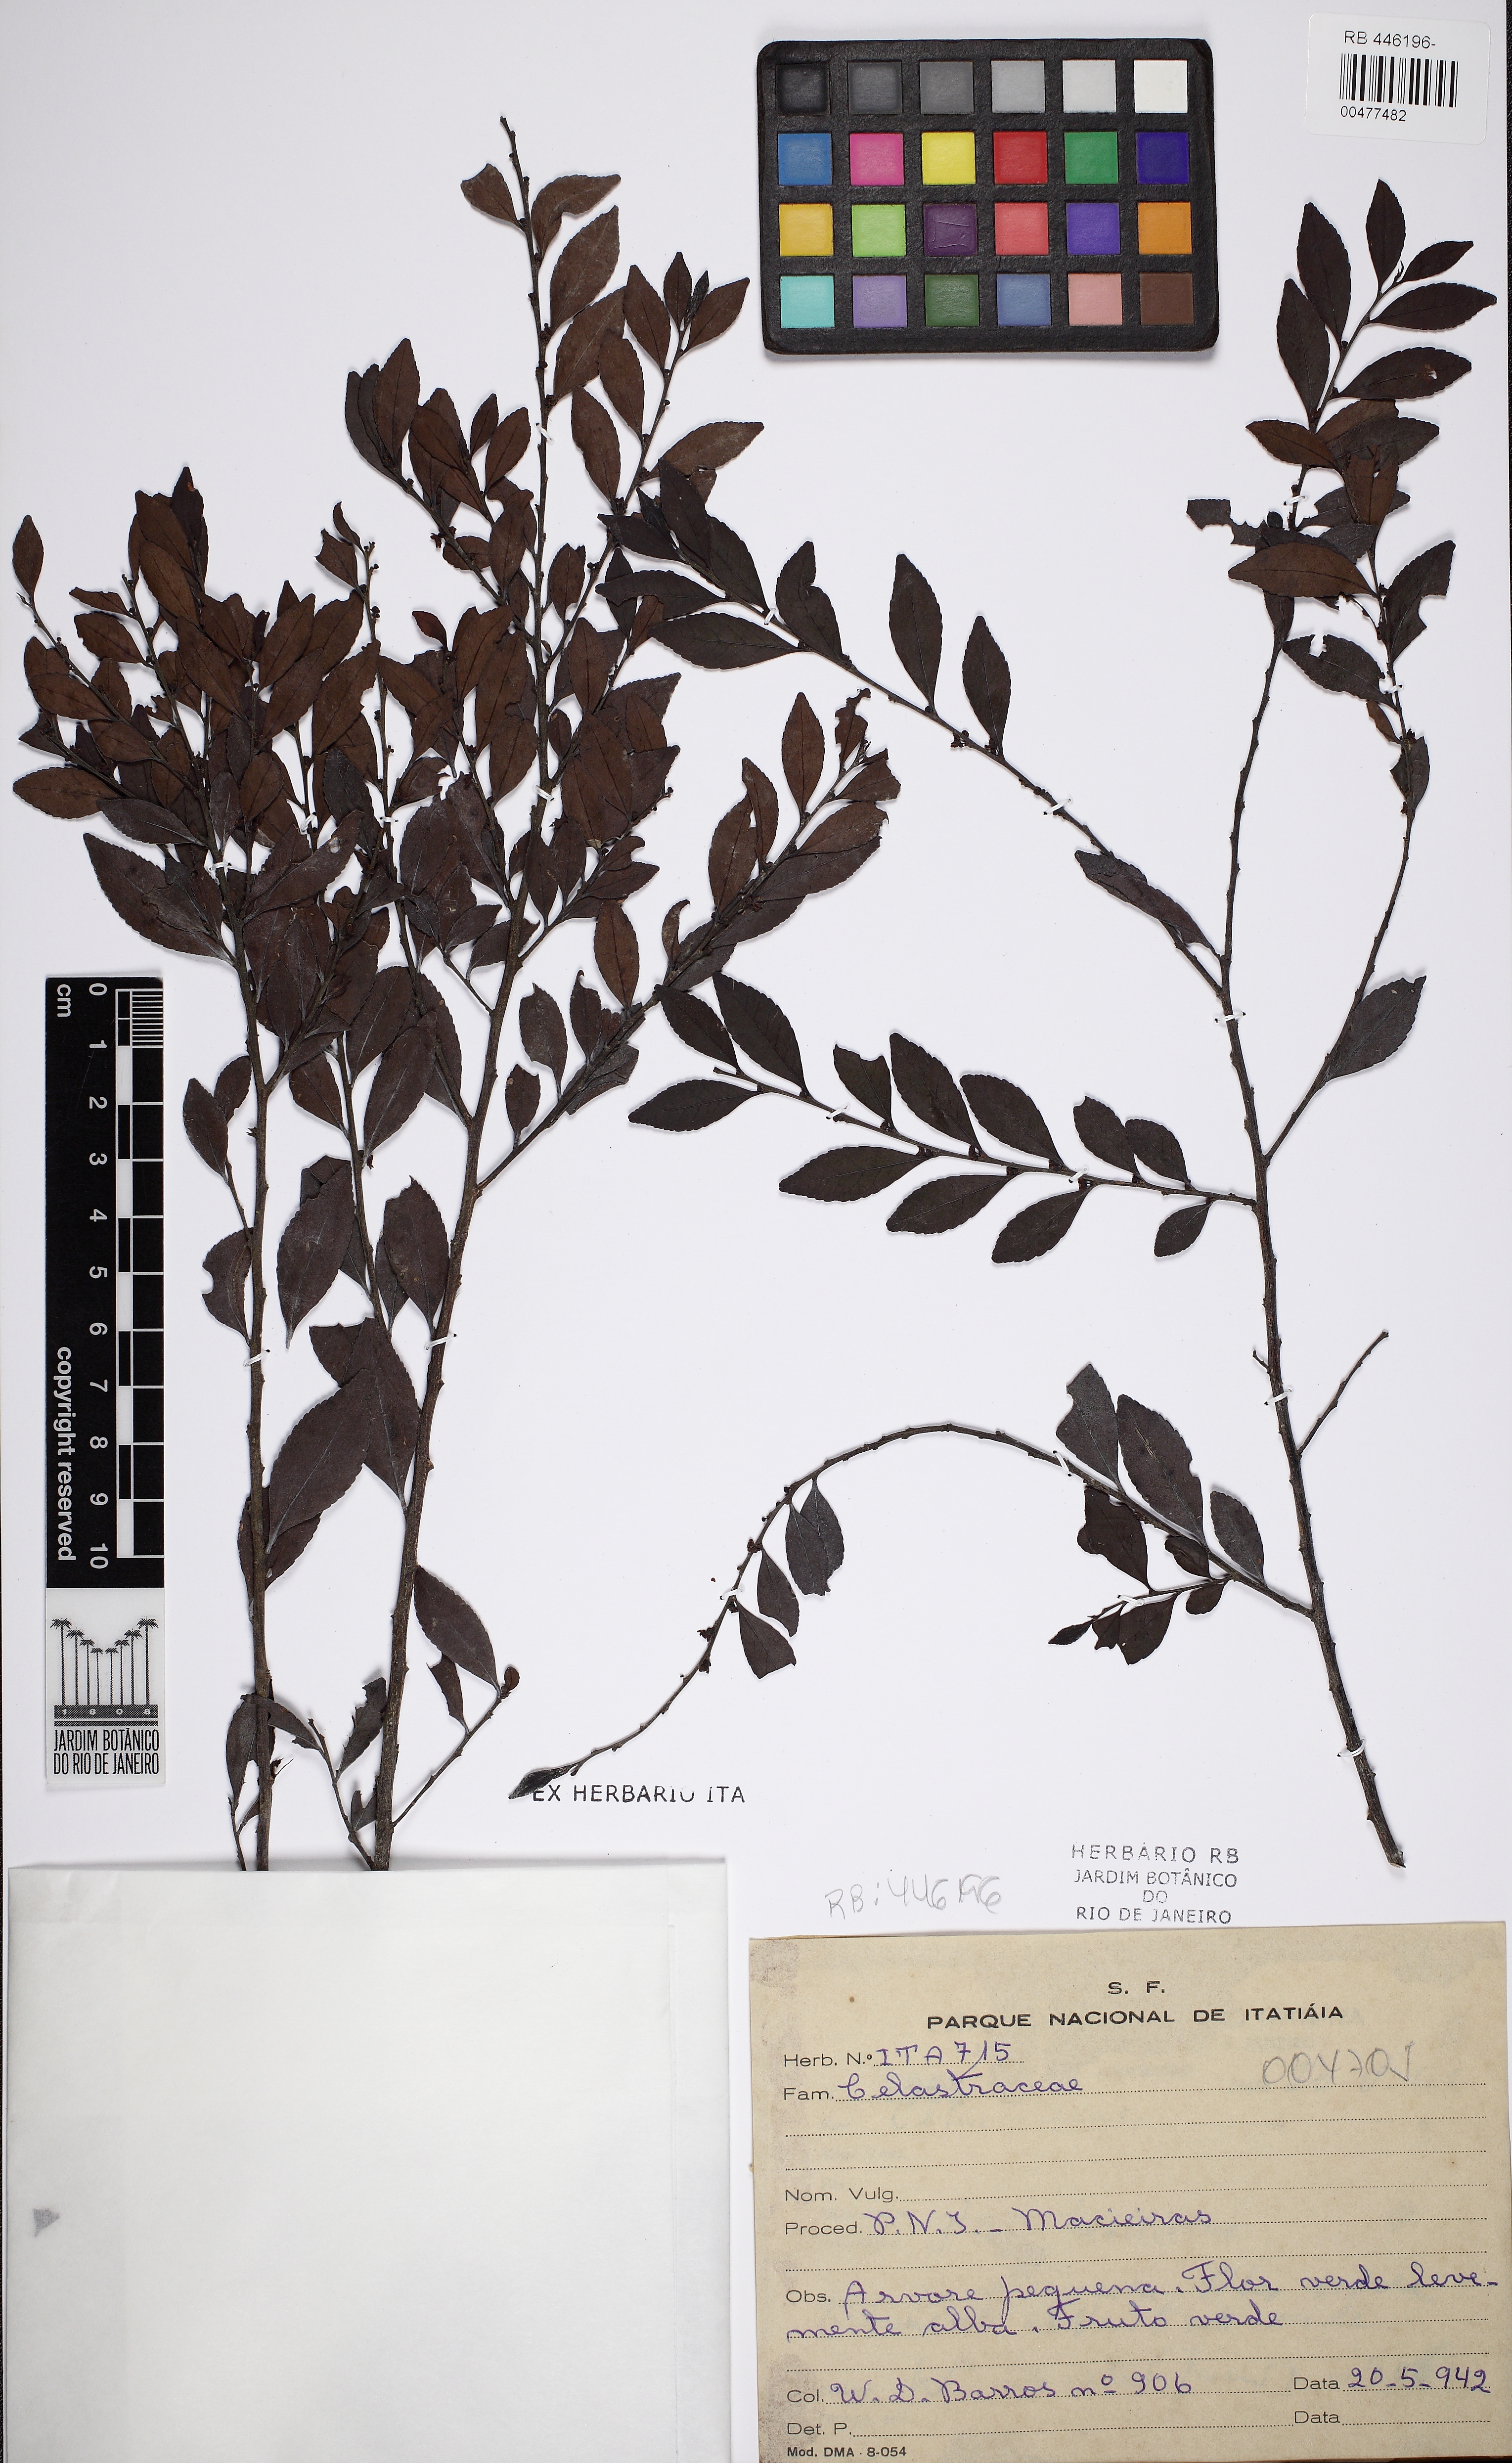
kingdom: Plantae
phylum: Tracheophyta
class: Magnoliopsida
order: Celastrales
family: Celastraceae
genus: Monteverdia
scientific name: Monteverdia dasyclados
